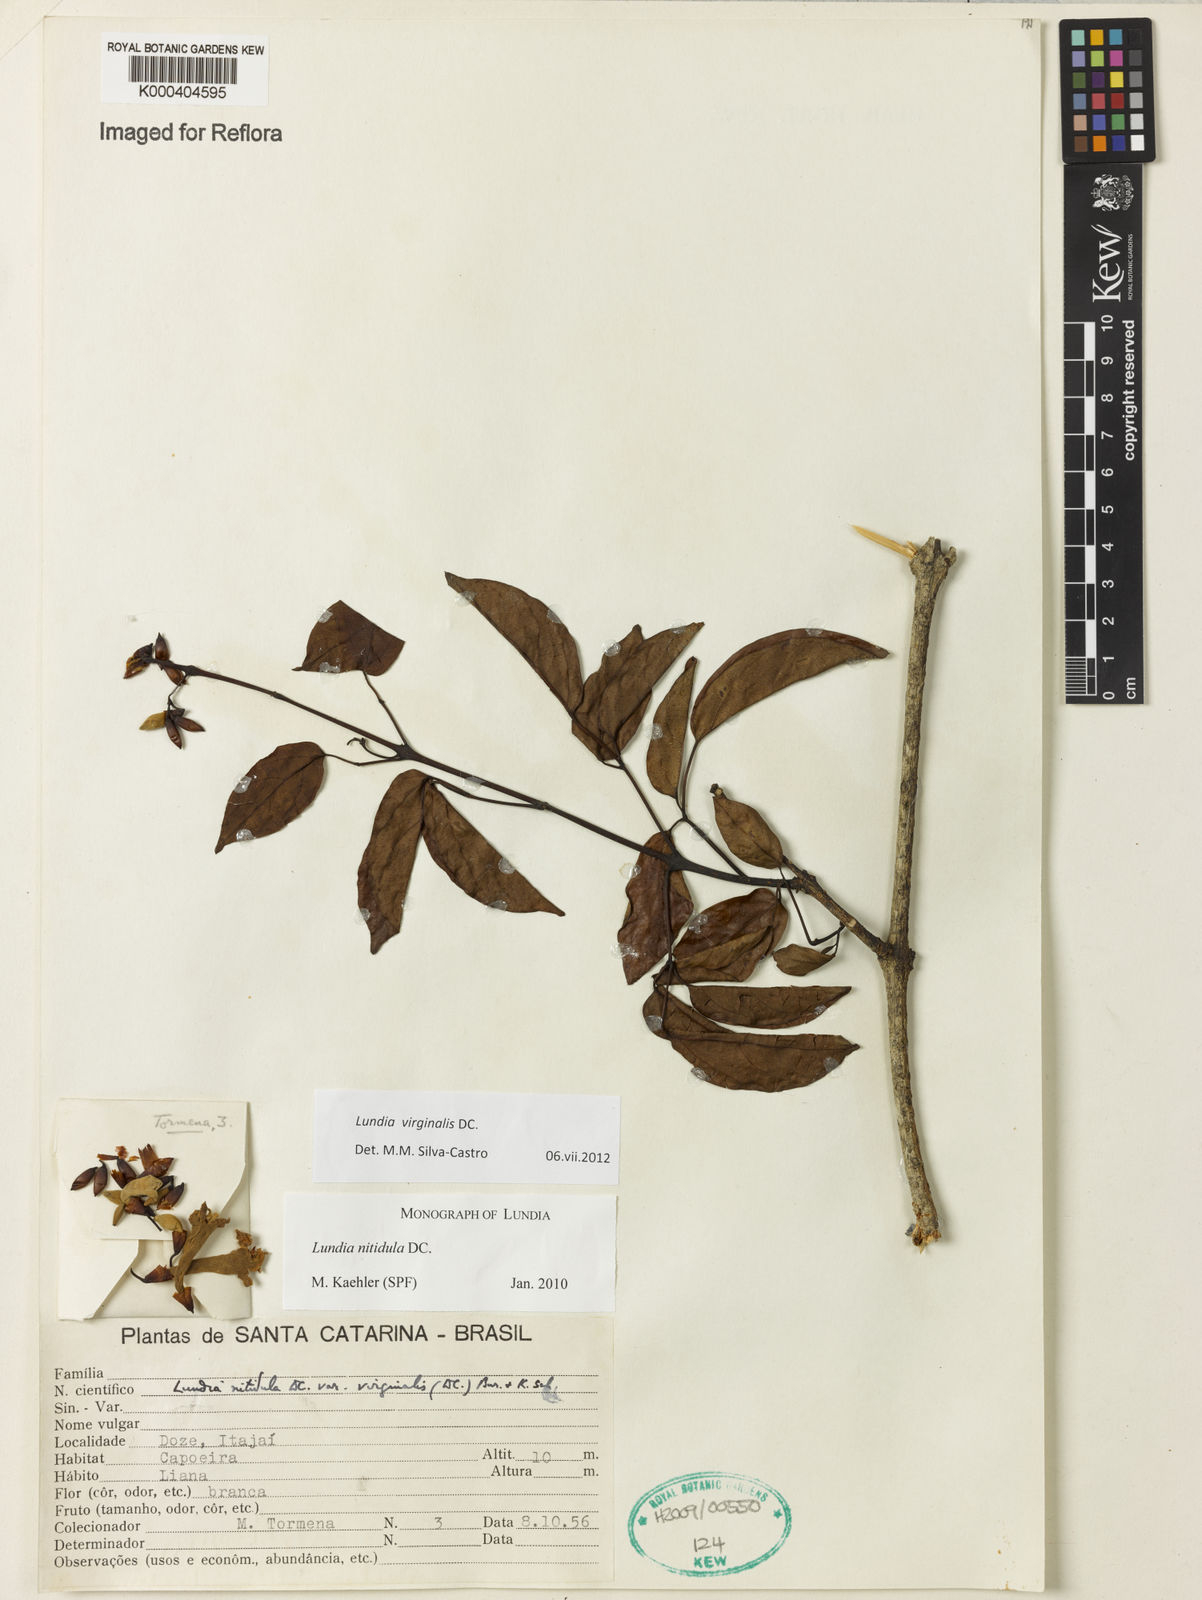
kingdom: Plantae
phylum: Tracheophyta
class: Magnoliopsida
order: Lamiales
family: Bignoniaceae
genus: Lundia
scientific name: Lundia virginalis
